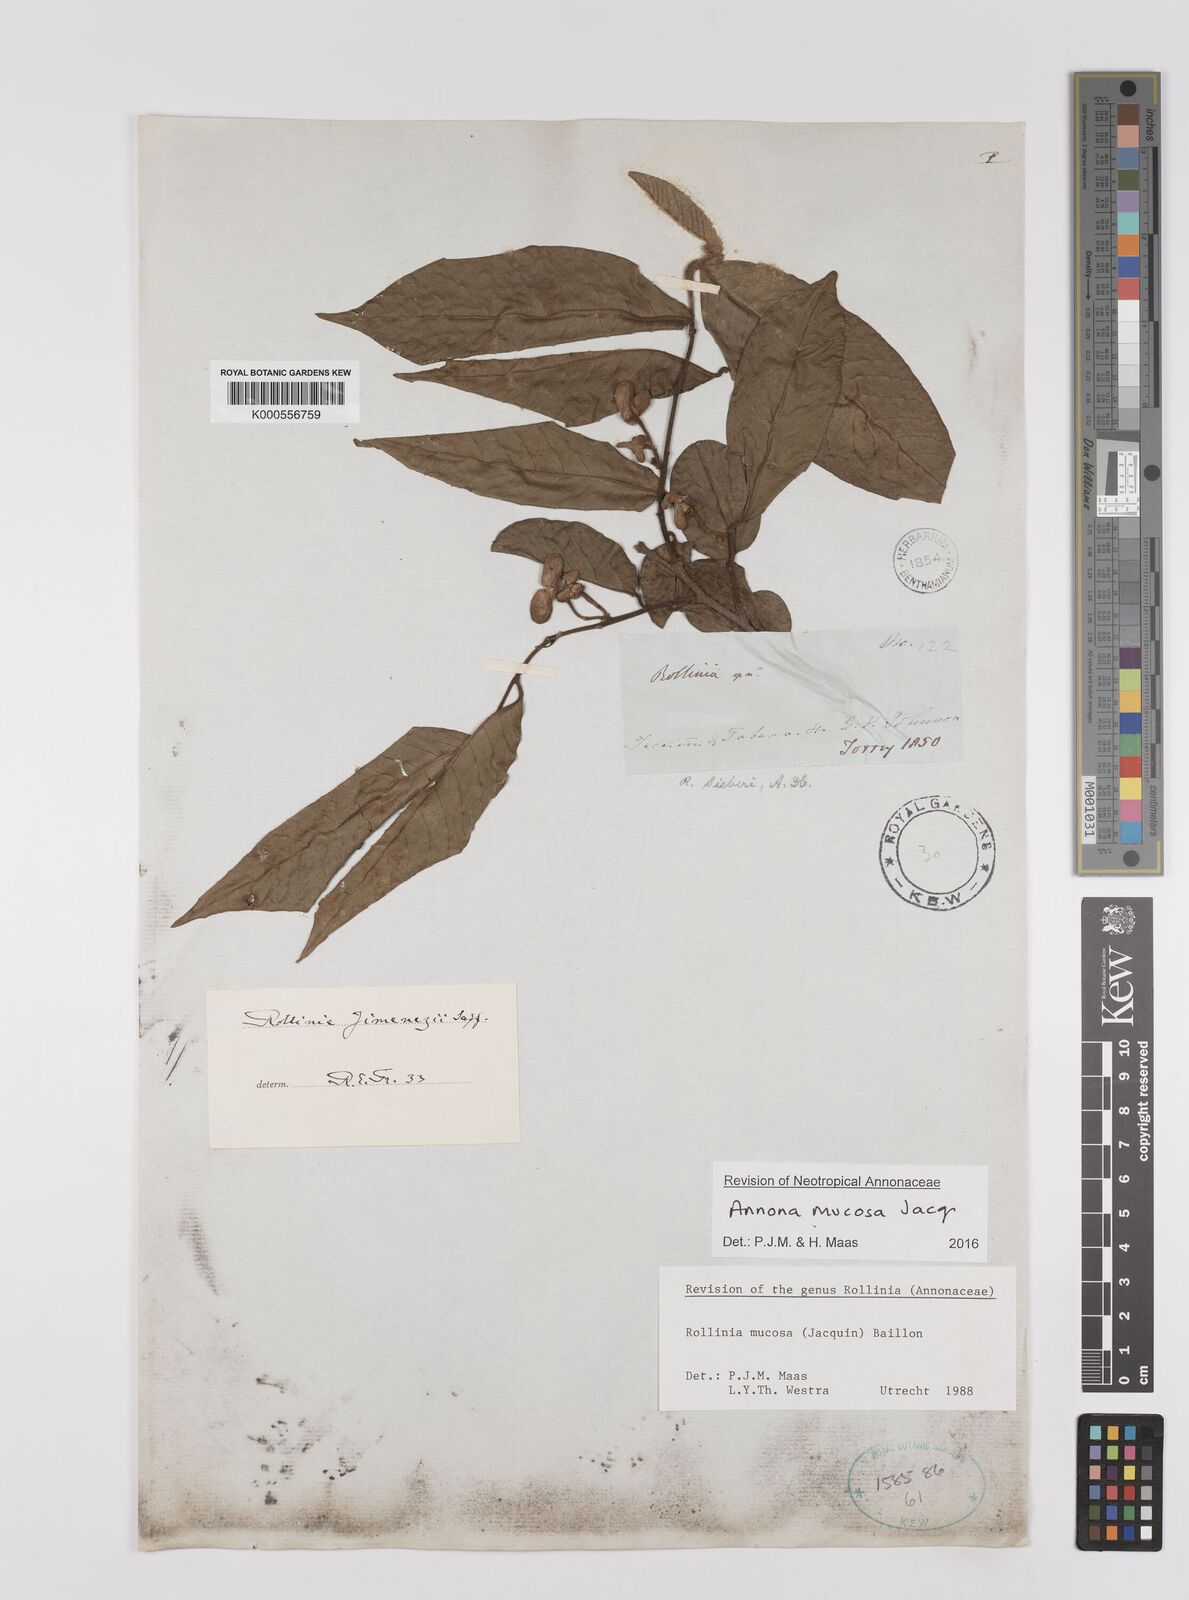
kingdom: Plantae
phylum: Tracheophyta
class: Magnoliopsida
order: Magnoliales
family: Annonaceae
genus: Annona
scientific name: Annona mucosa
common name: Sugar apple
